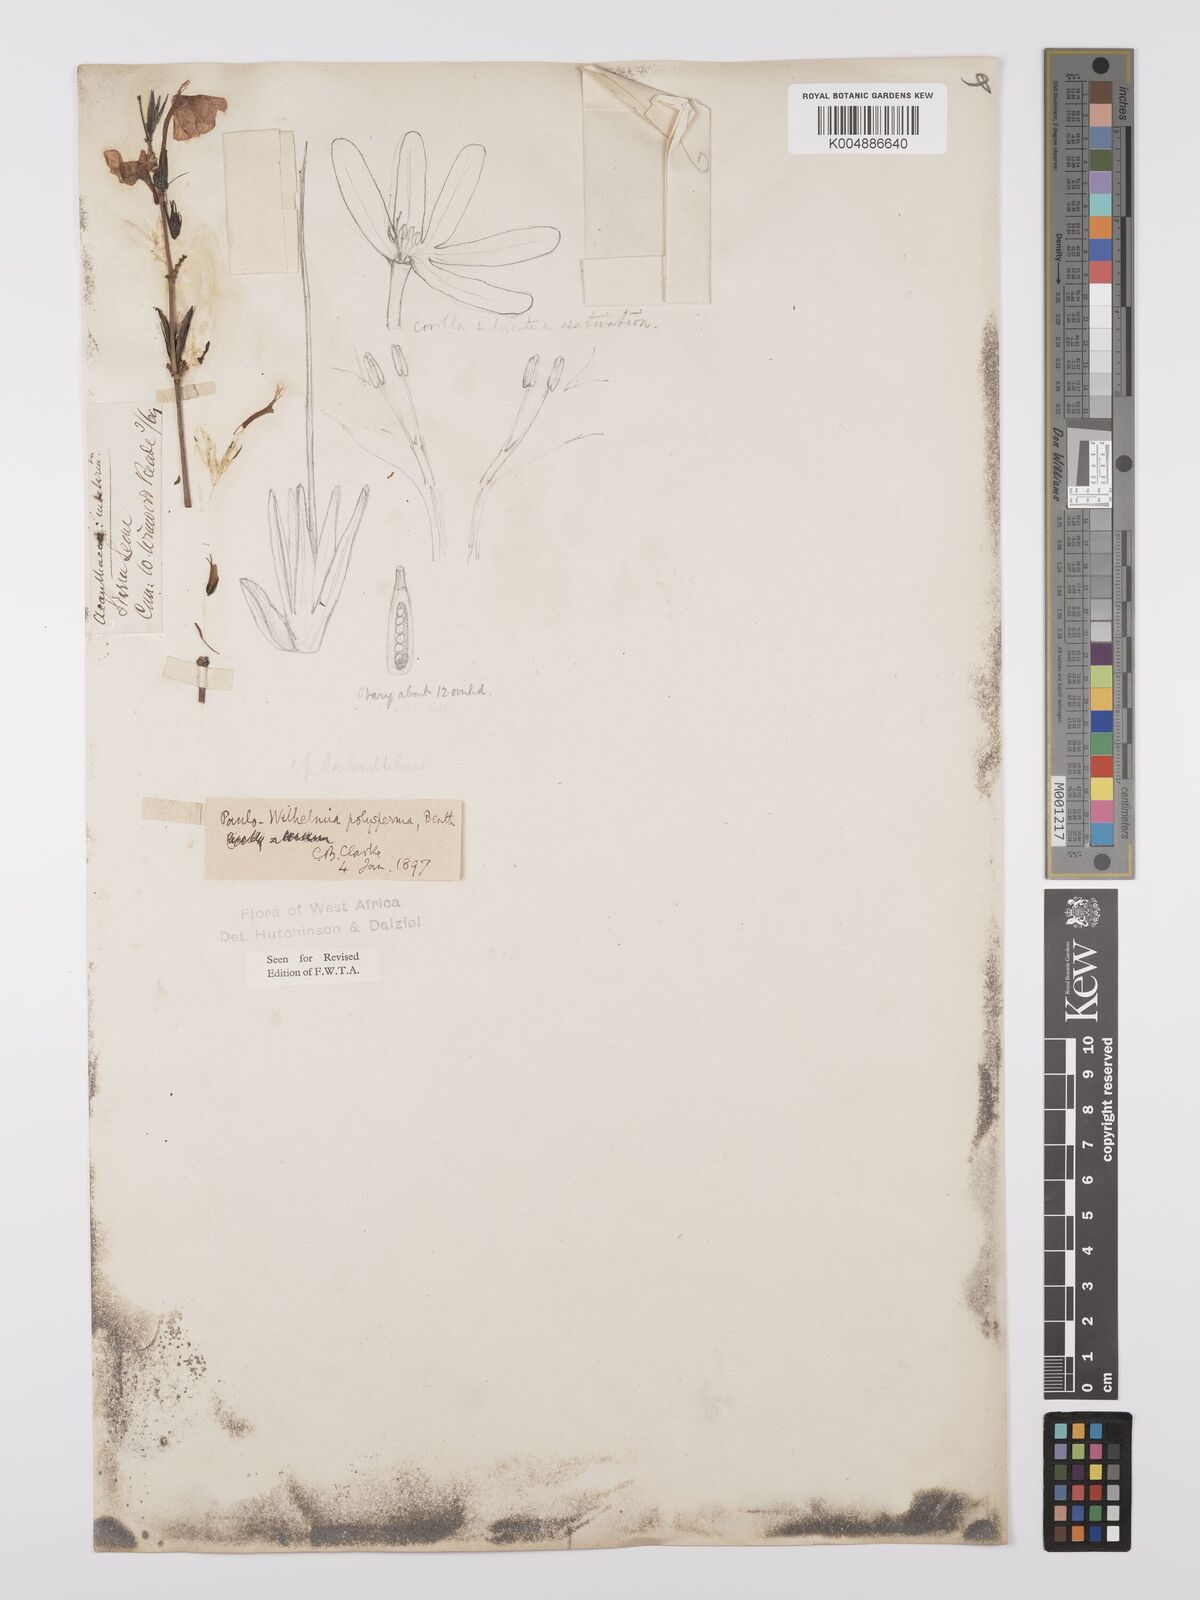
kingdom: Plantae
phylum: Tracheophyta
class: Magnoliopsida
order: Lamiales
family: Acanthaceae
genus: Eremomastax
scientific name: Eremomastax speciosa
